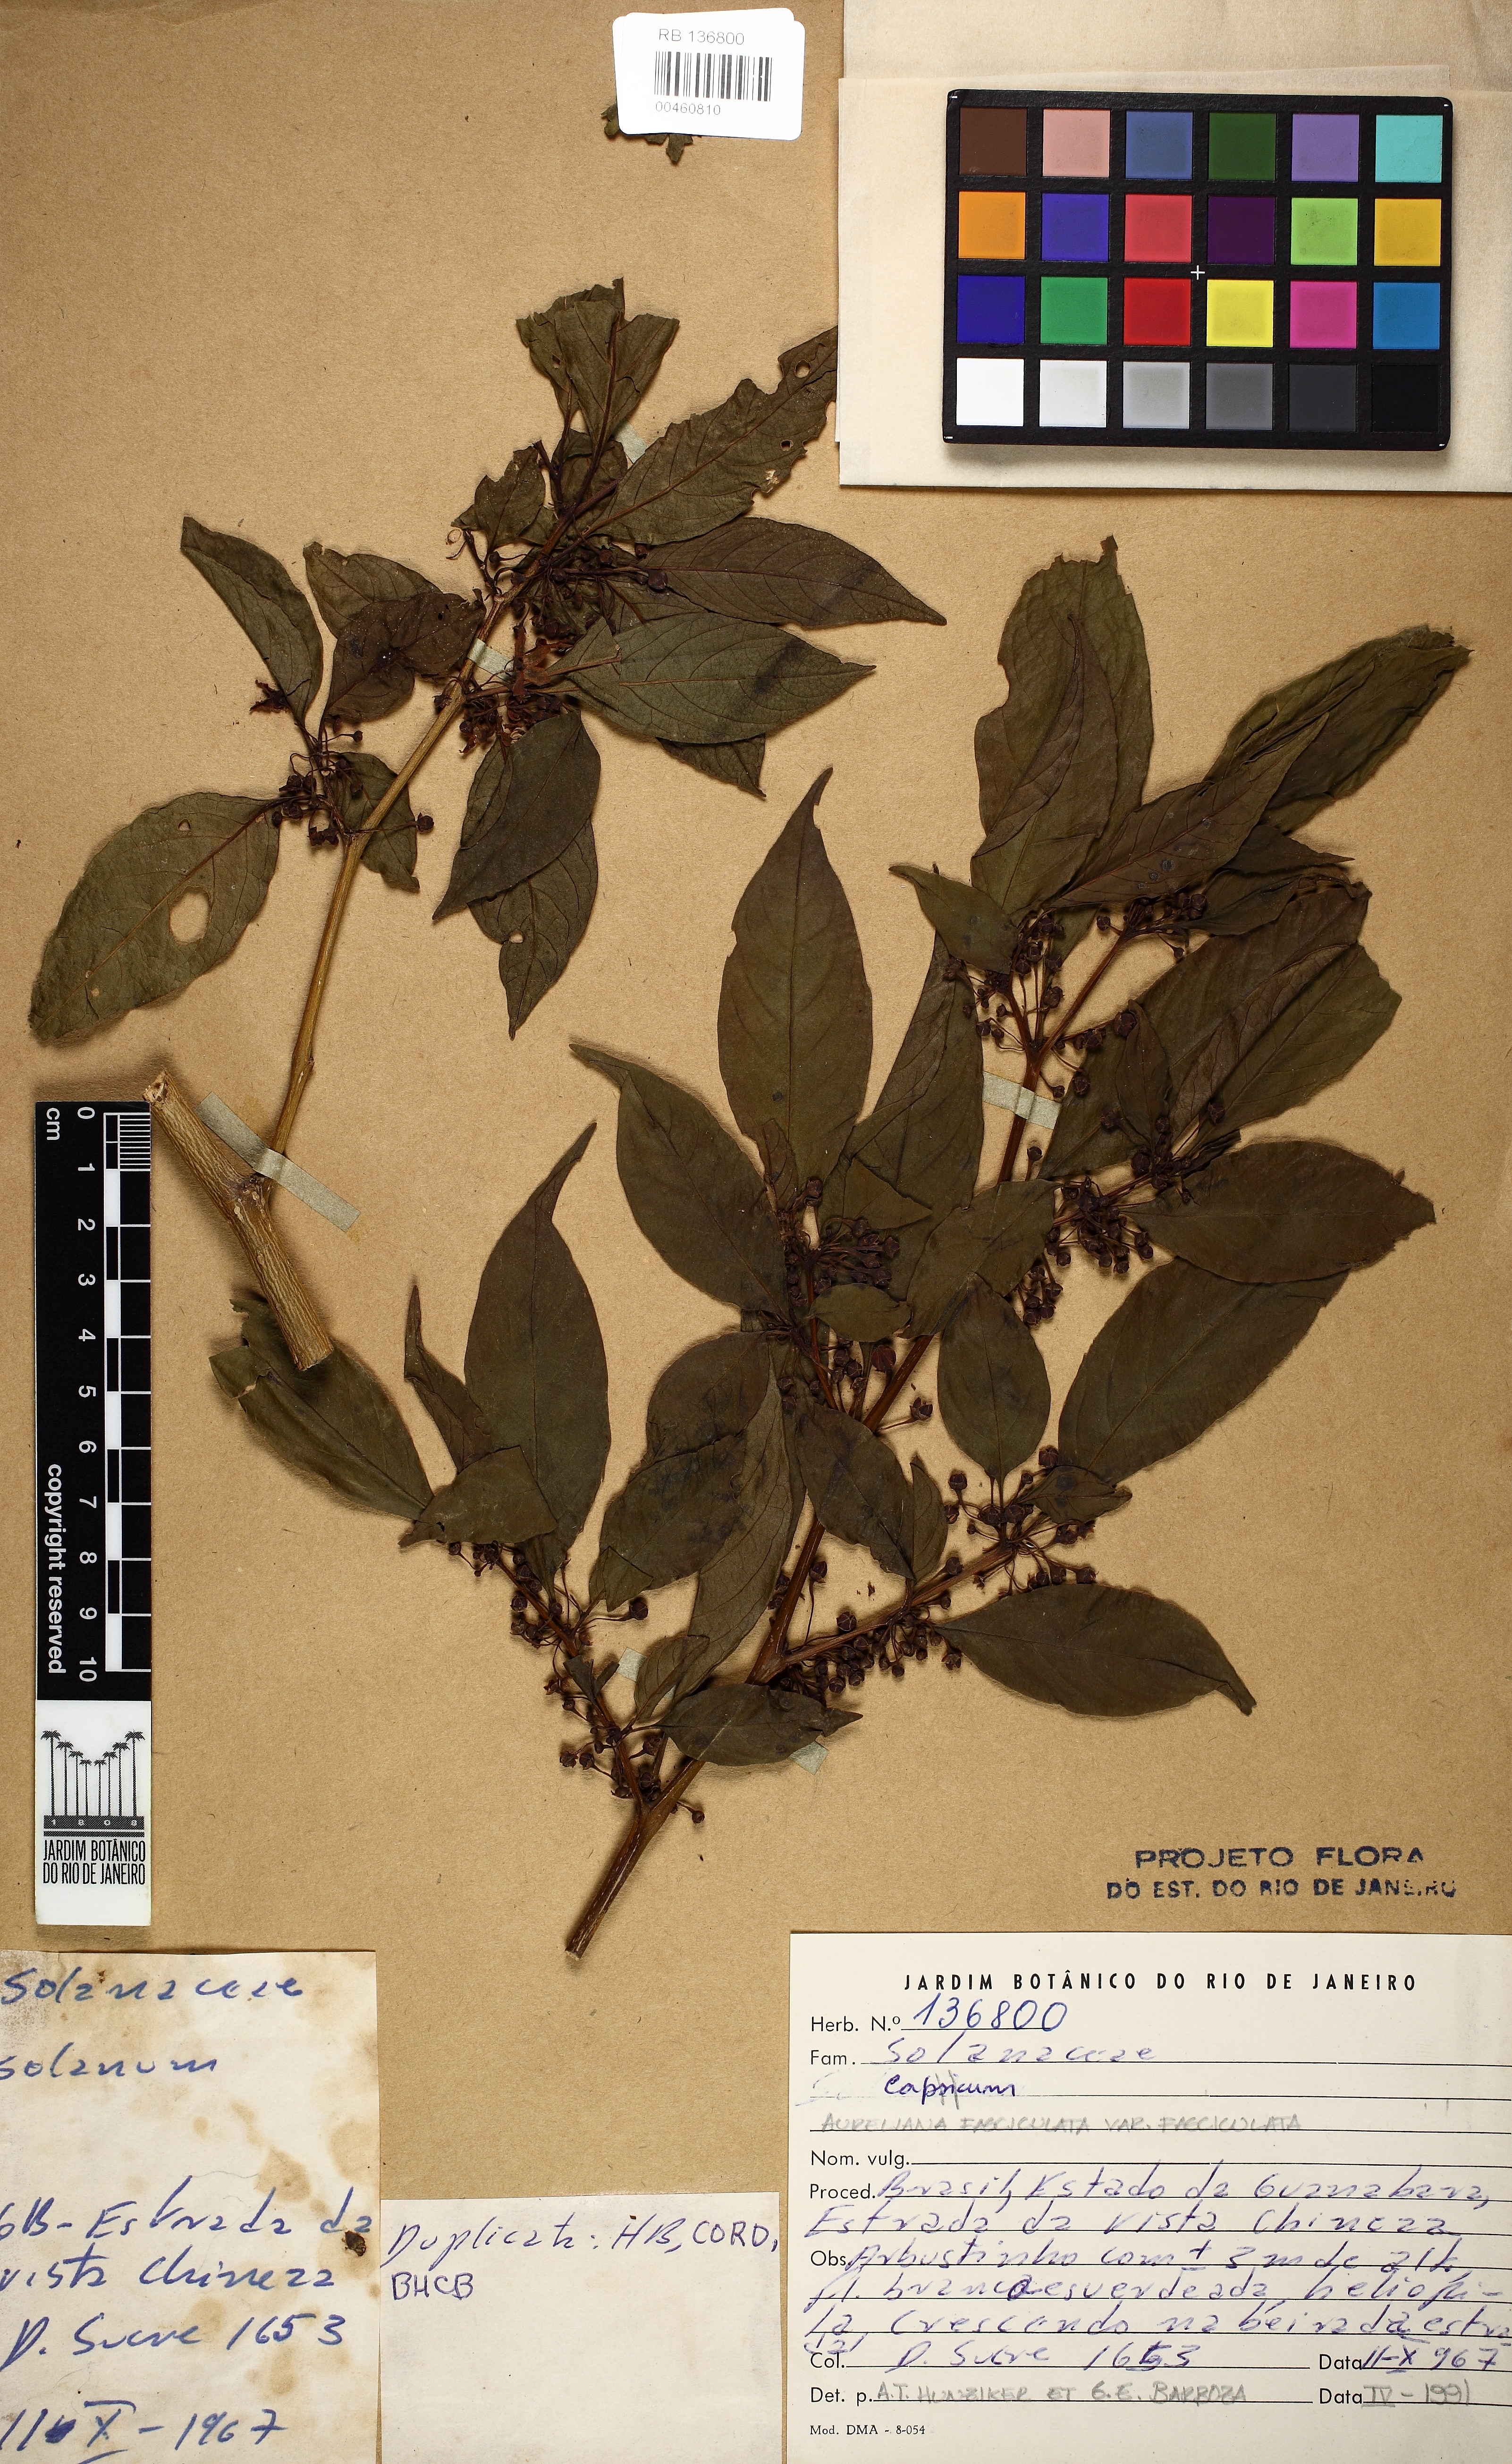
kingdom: Plantae
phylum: Tracheophyta
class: Magnoliopsida
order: Solanales
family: Solanaceae
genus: Athenaea
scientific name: Athenaea fasciculata
